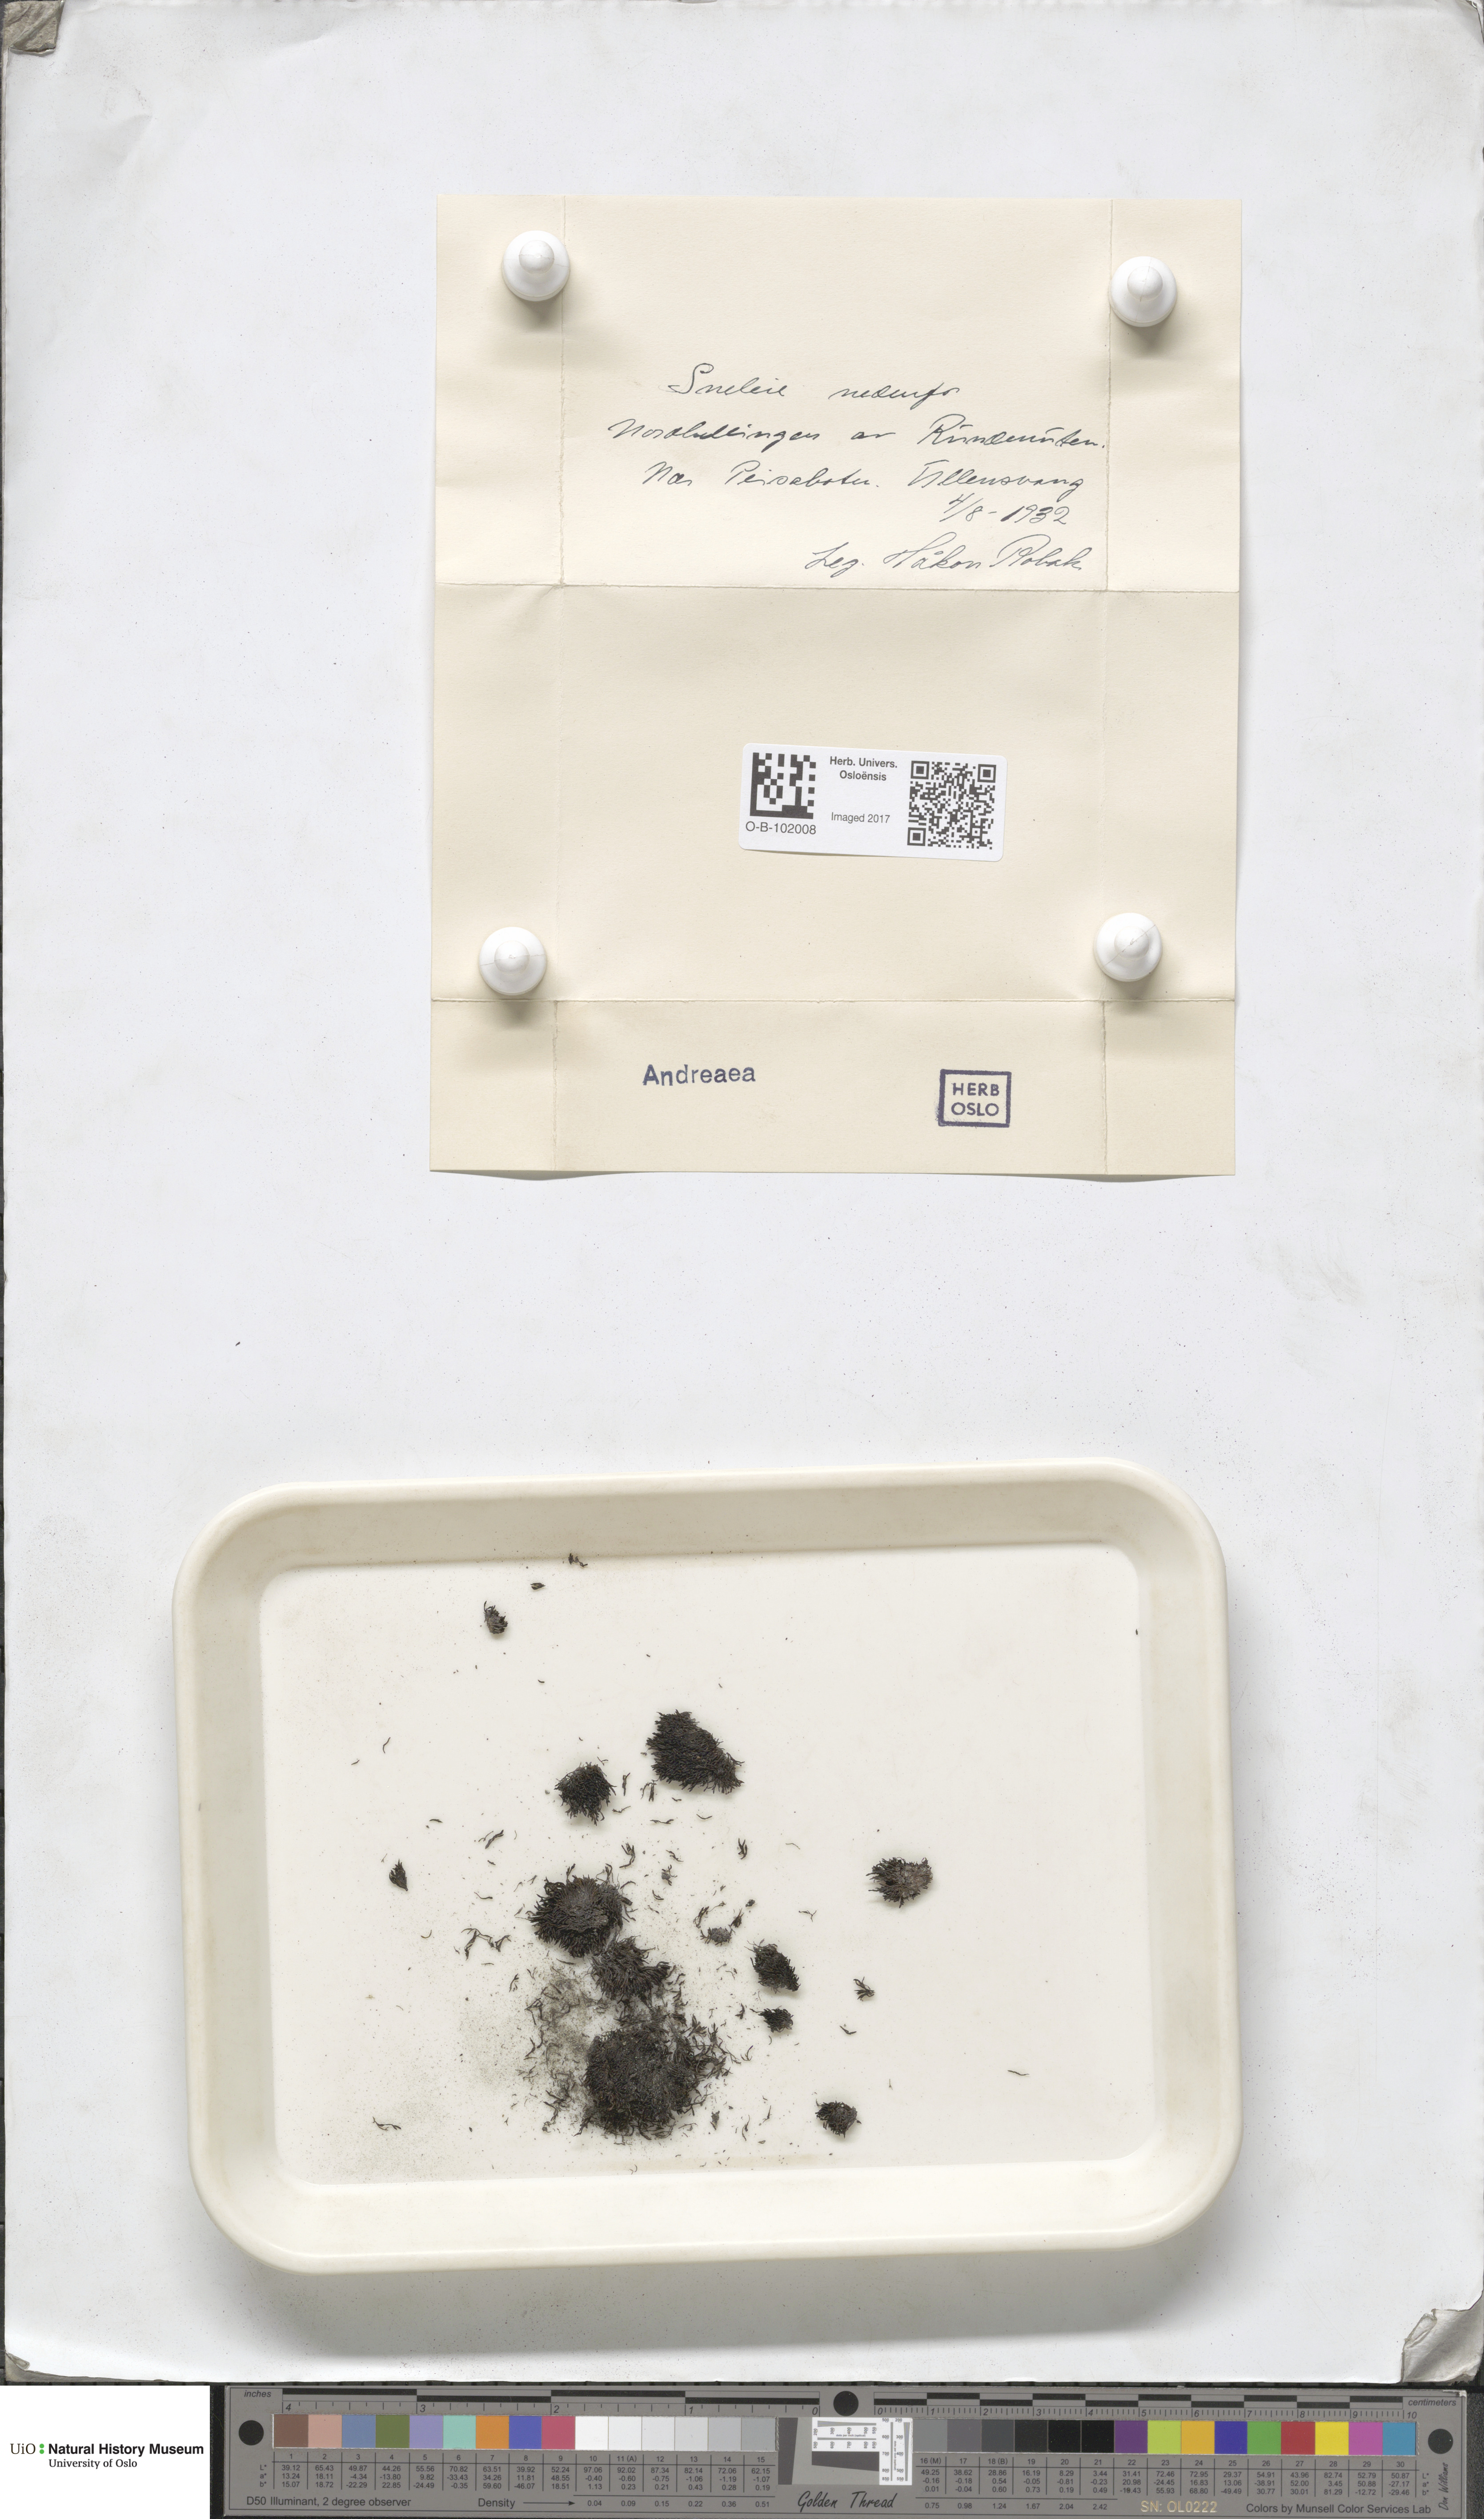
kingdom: Plantae
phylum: Bryophyta
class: Andreaeopsida
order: Andreaeales
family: Andreaeaceae
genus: Andreaea
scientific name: Andreaea
